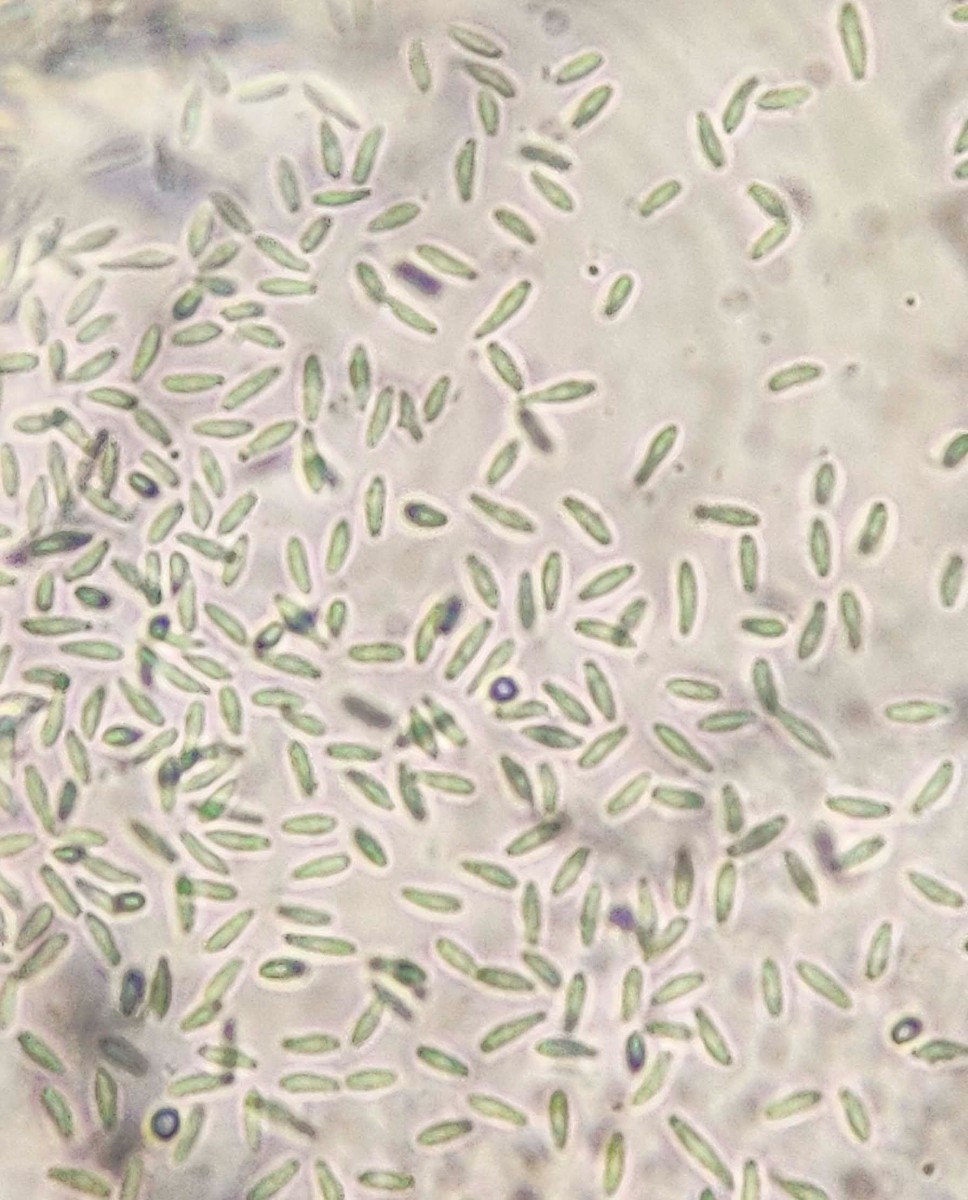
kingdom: Fungi
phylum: Ascomycota
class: Leotiomycetes
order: Helotiales
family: Lachnaceae
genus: Lachnum
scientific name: Lachnum impudicum
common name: vinter-frynseskive
